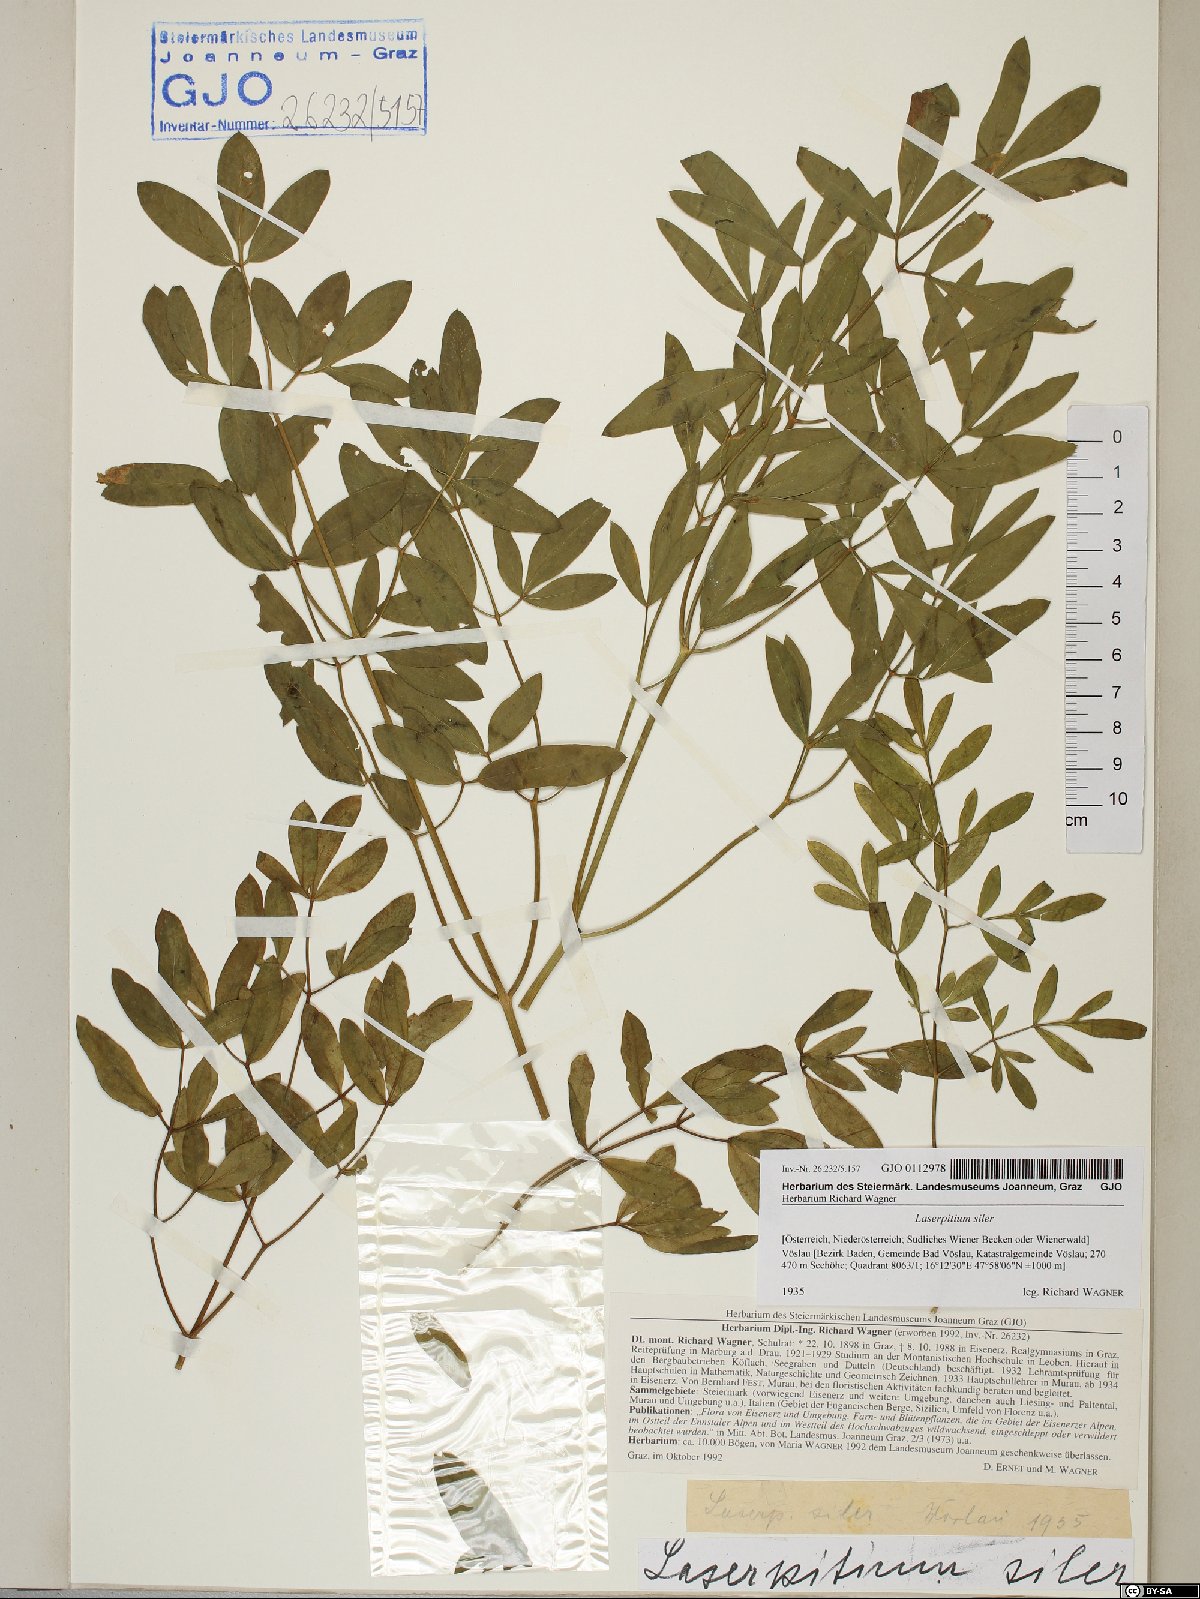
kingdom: Plantae
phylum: Tracheophyta
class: Magnoliopsida
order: Apiales
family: Apiaceae
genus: Siler
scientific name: Siler montanum
